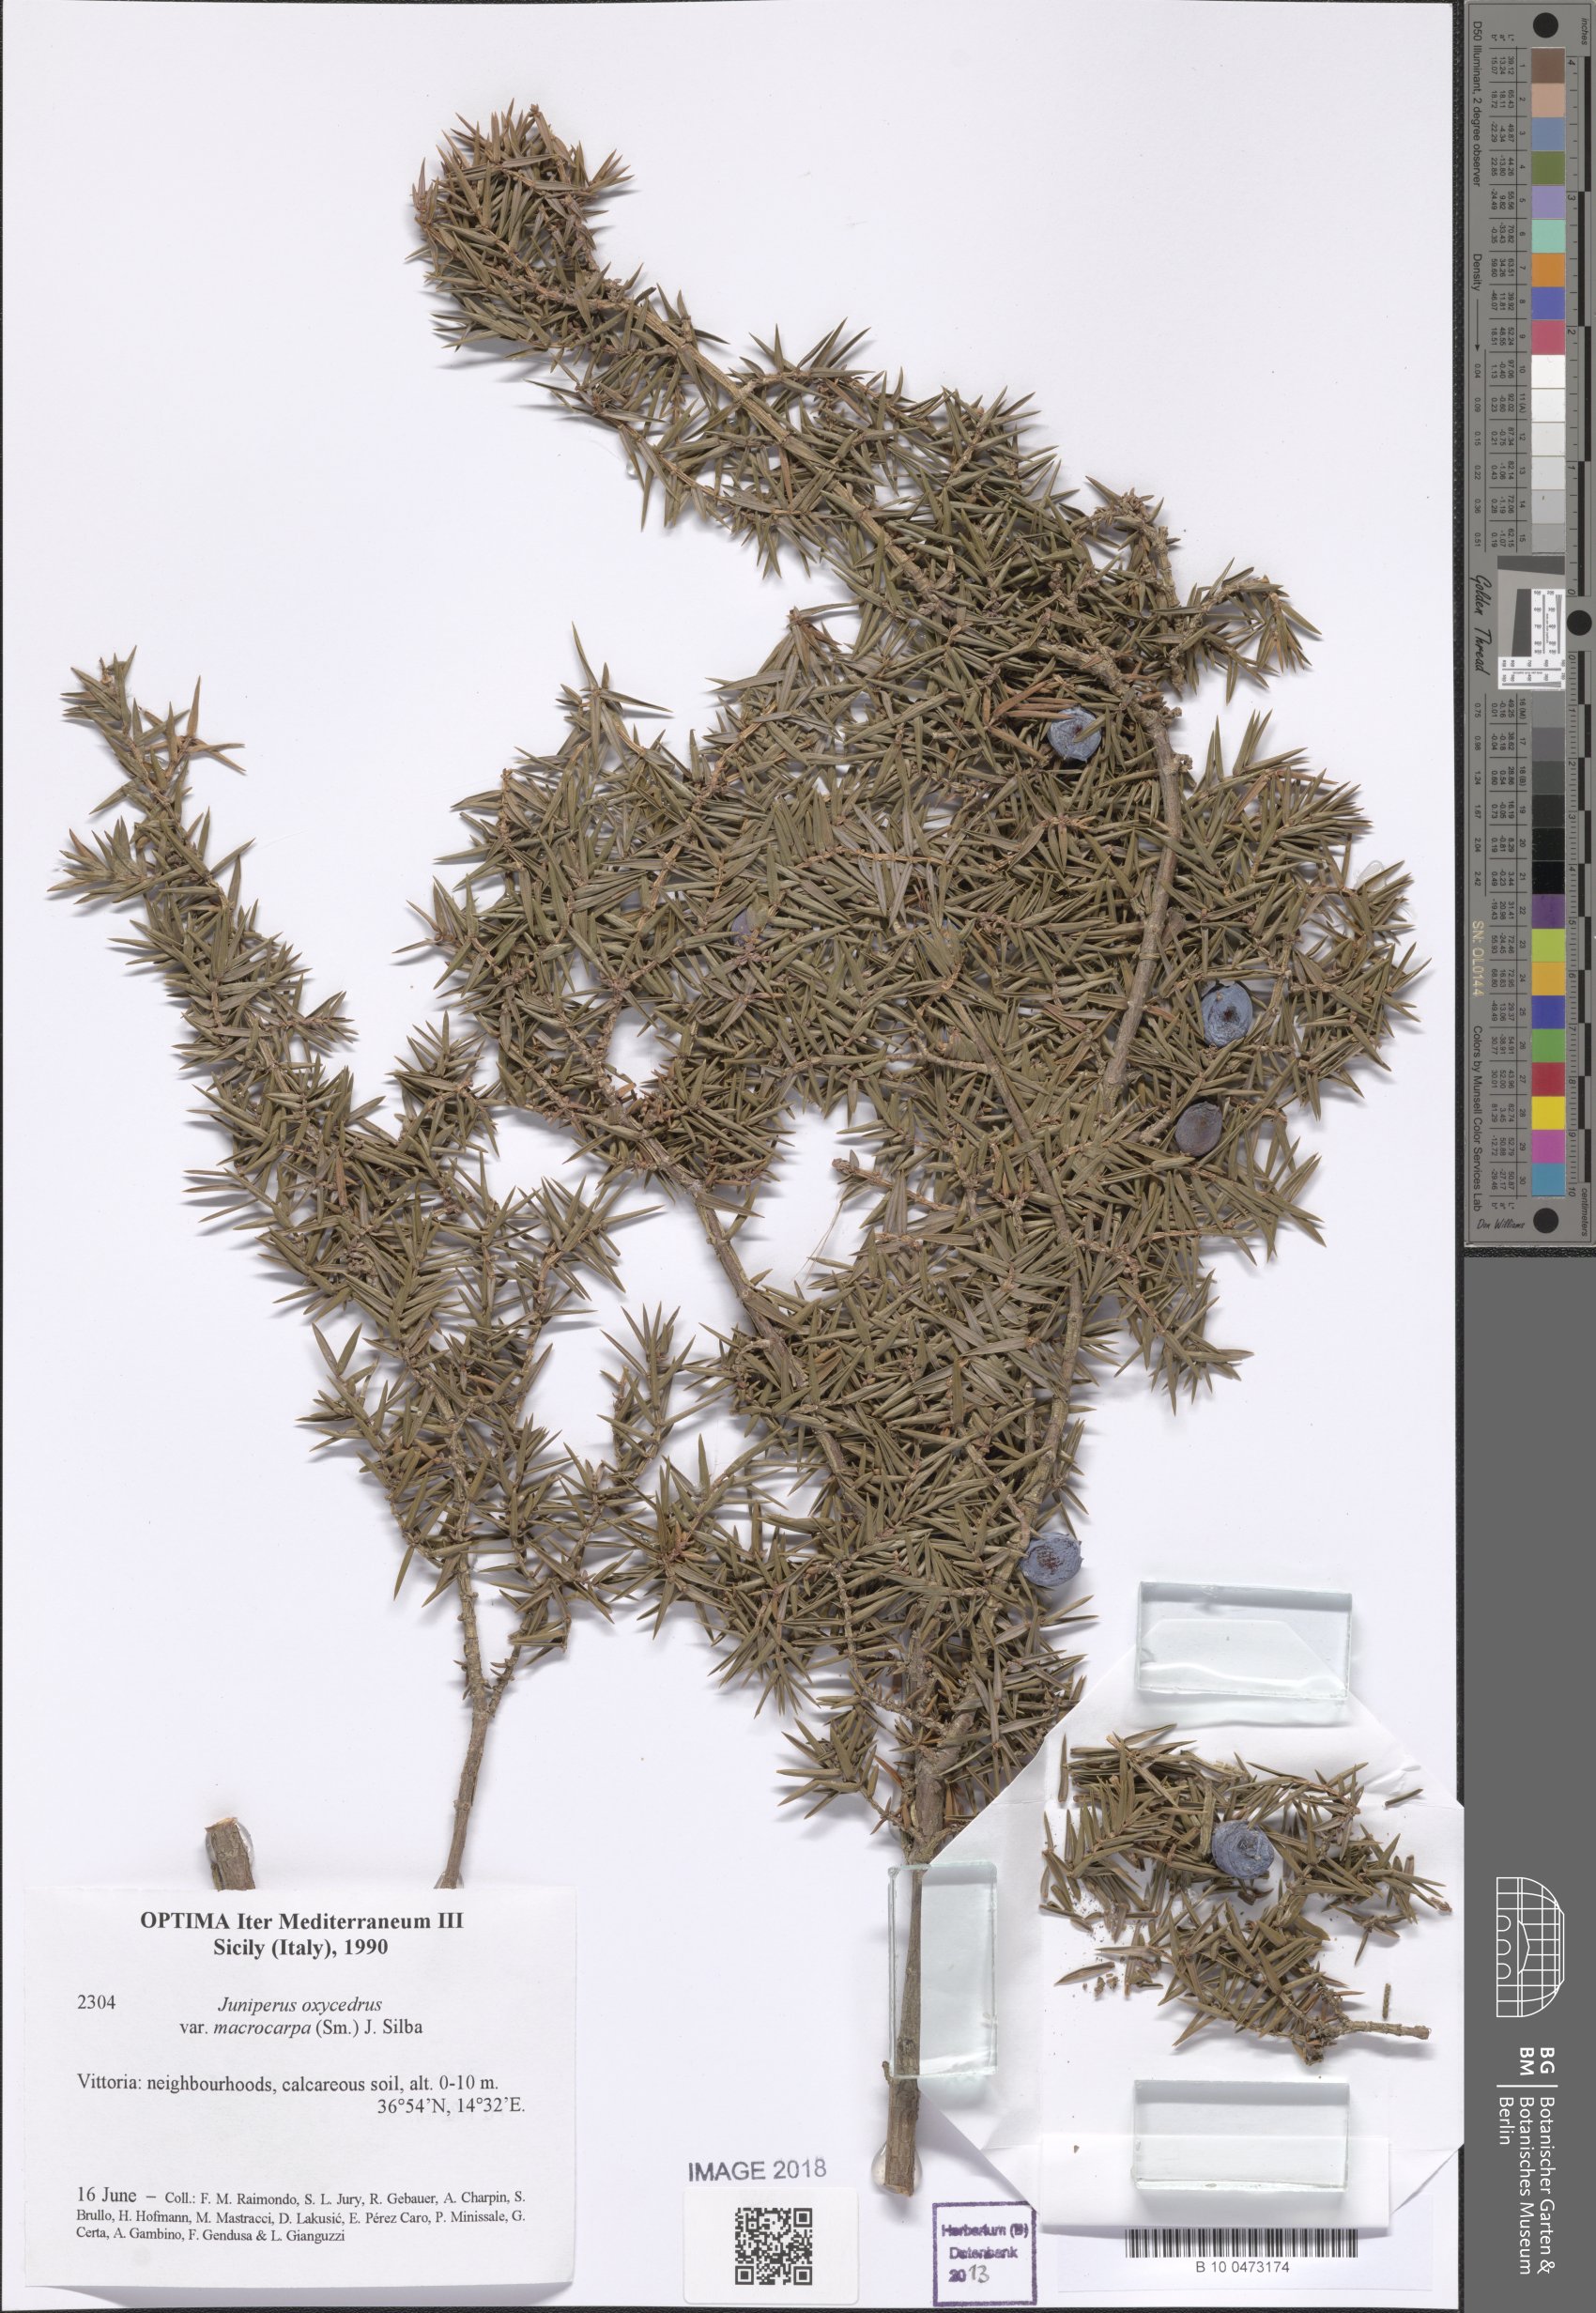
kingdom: Plantae
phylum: Tracheophyta
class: Pinopsida
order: Pinales
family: Cupressaceae
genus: Juniperus
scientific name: Juniperus oxycedrus
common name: Prickly juniper
